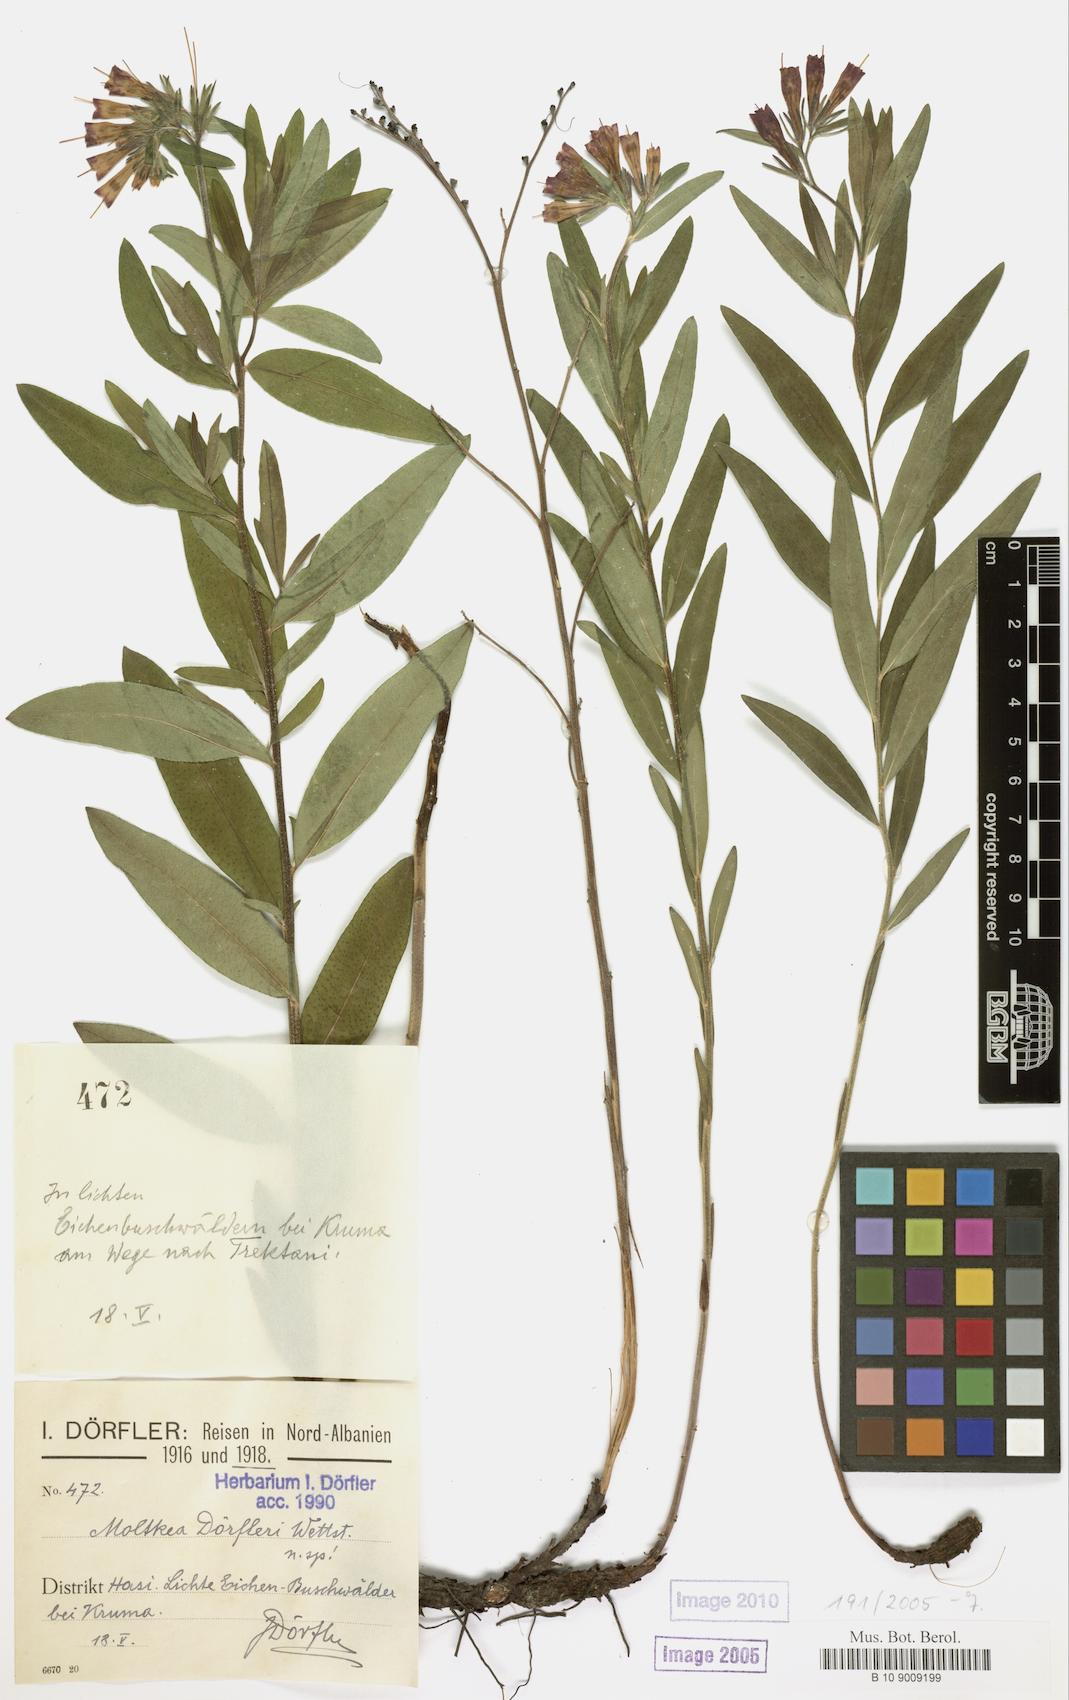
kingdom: Plantae
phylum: Tracheophyta
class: Magnoliopsida
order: Boraginales
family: Boraginaceae
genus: Paramoltkia
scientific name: Paramoltkia doerfleri
